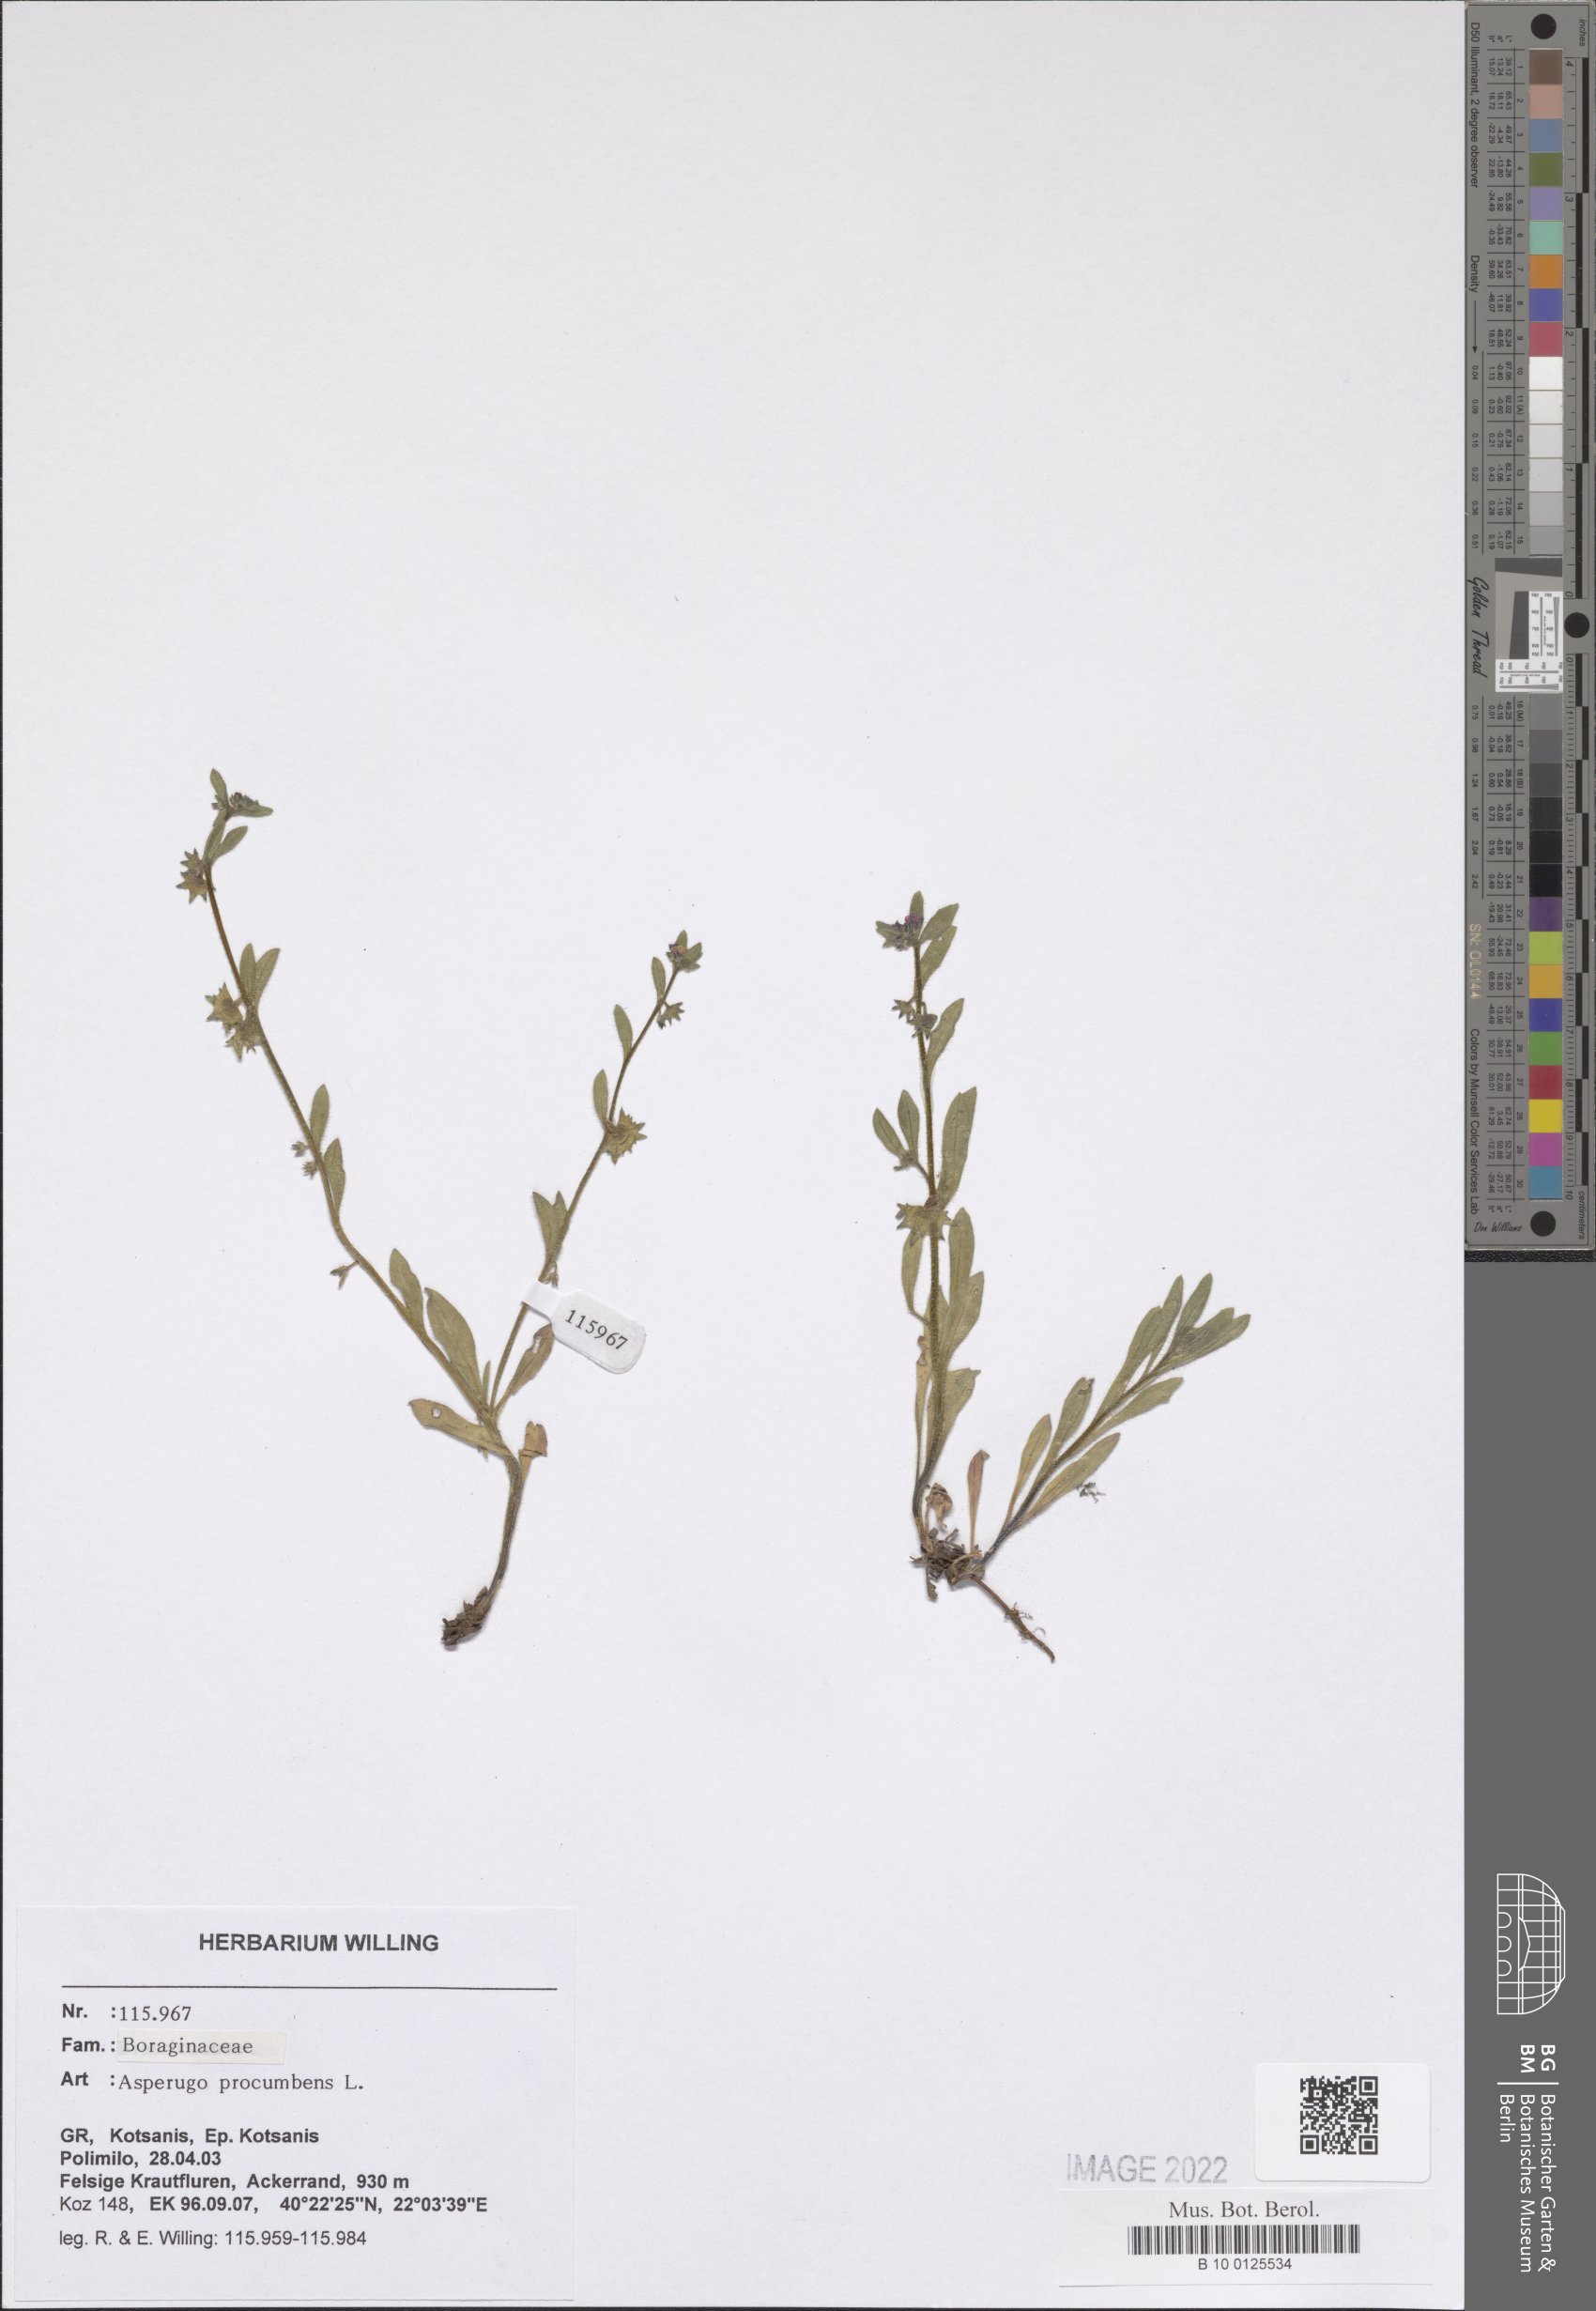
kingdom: Plantae
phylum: Tracheophyta
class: Magnoliopsida
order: Boraginales
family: Boraginaceae
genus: Asperugo
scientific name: Asperugo procumbens
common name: Madwort
